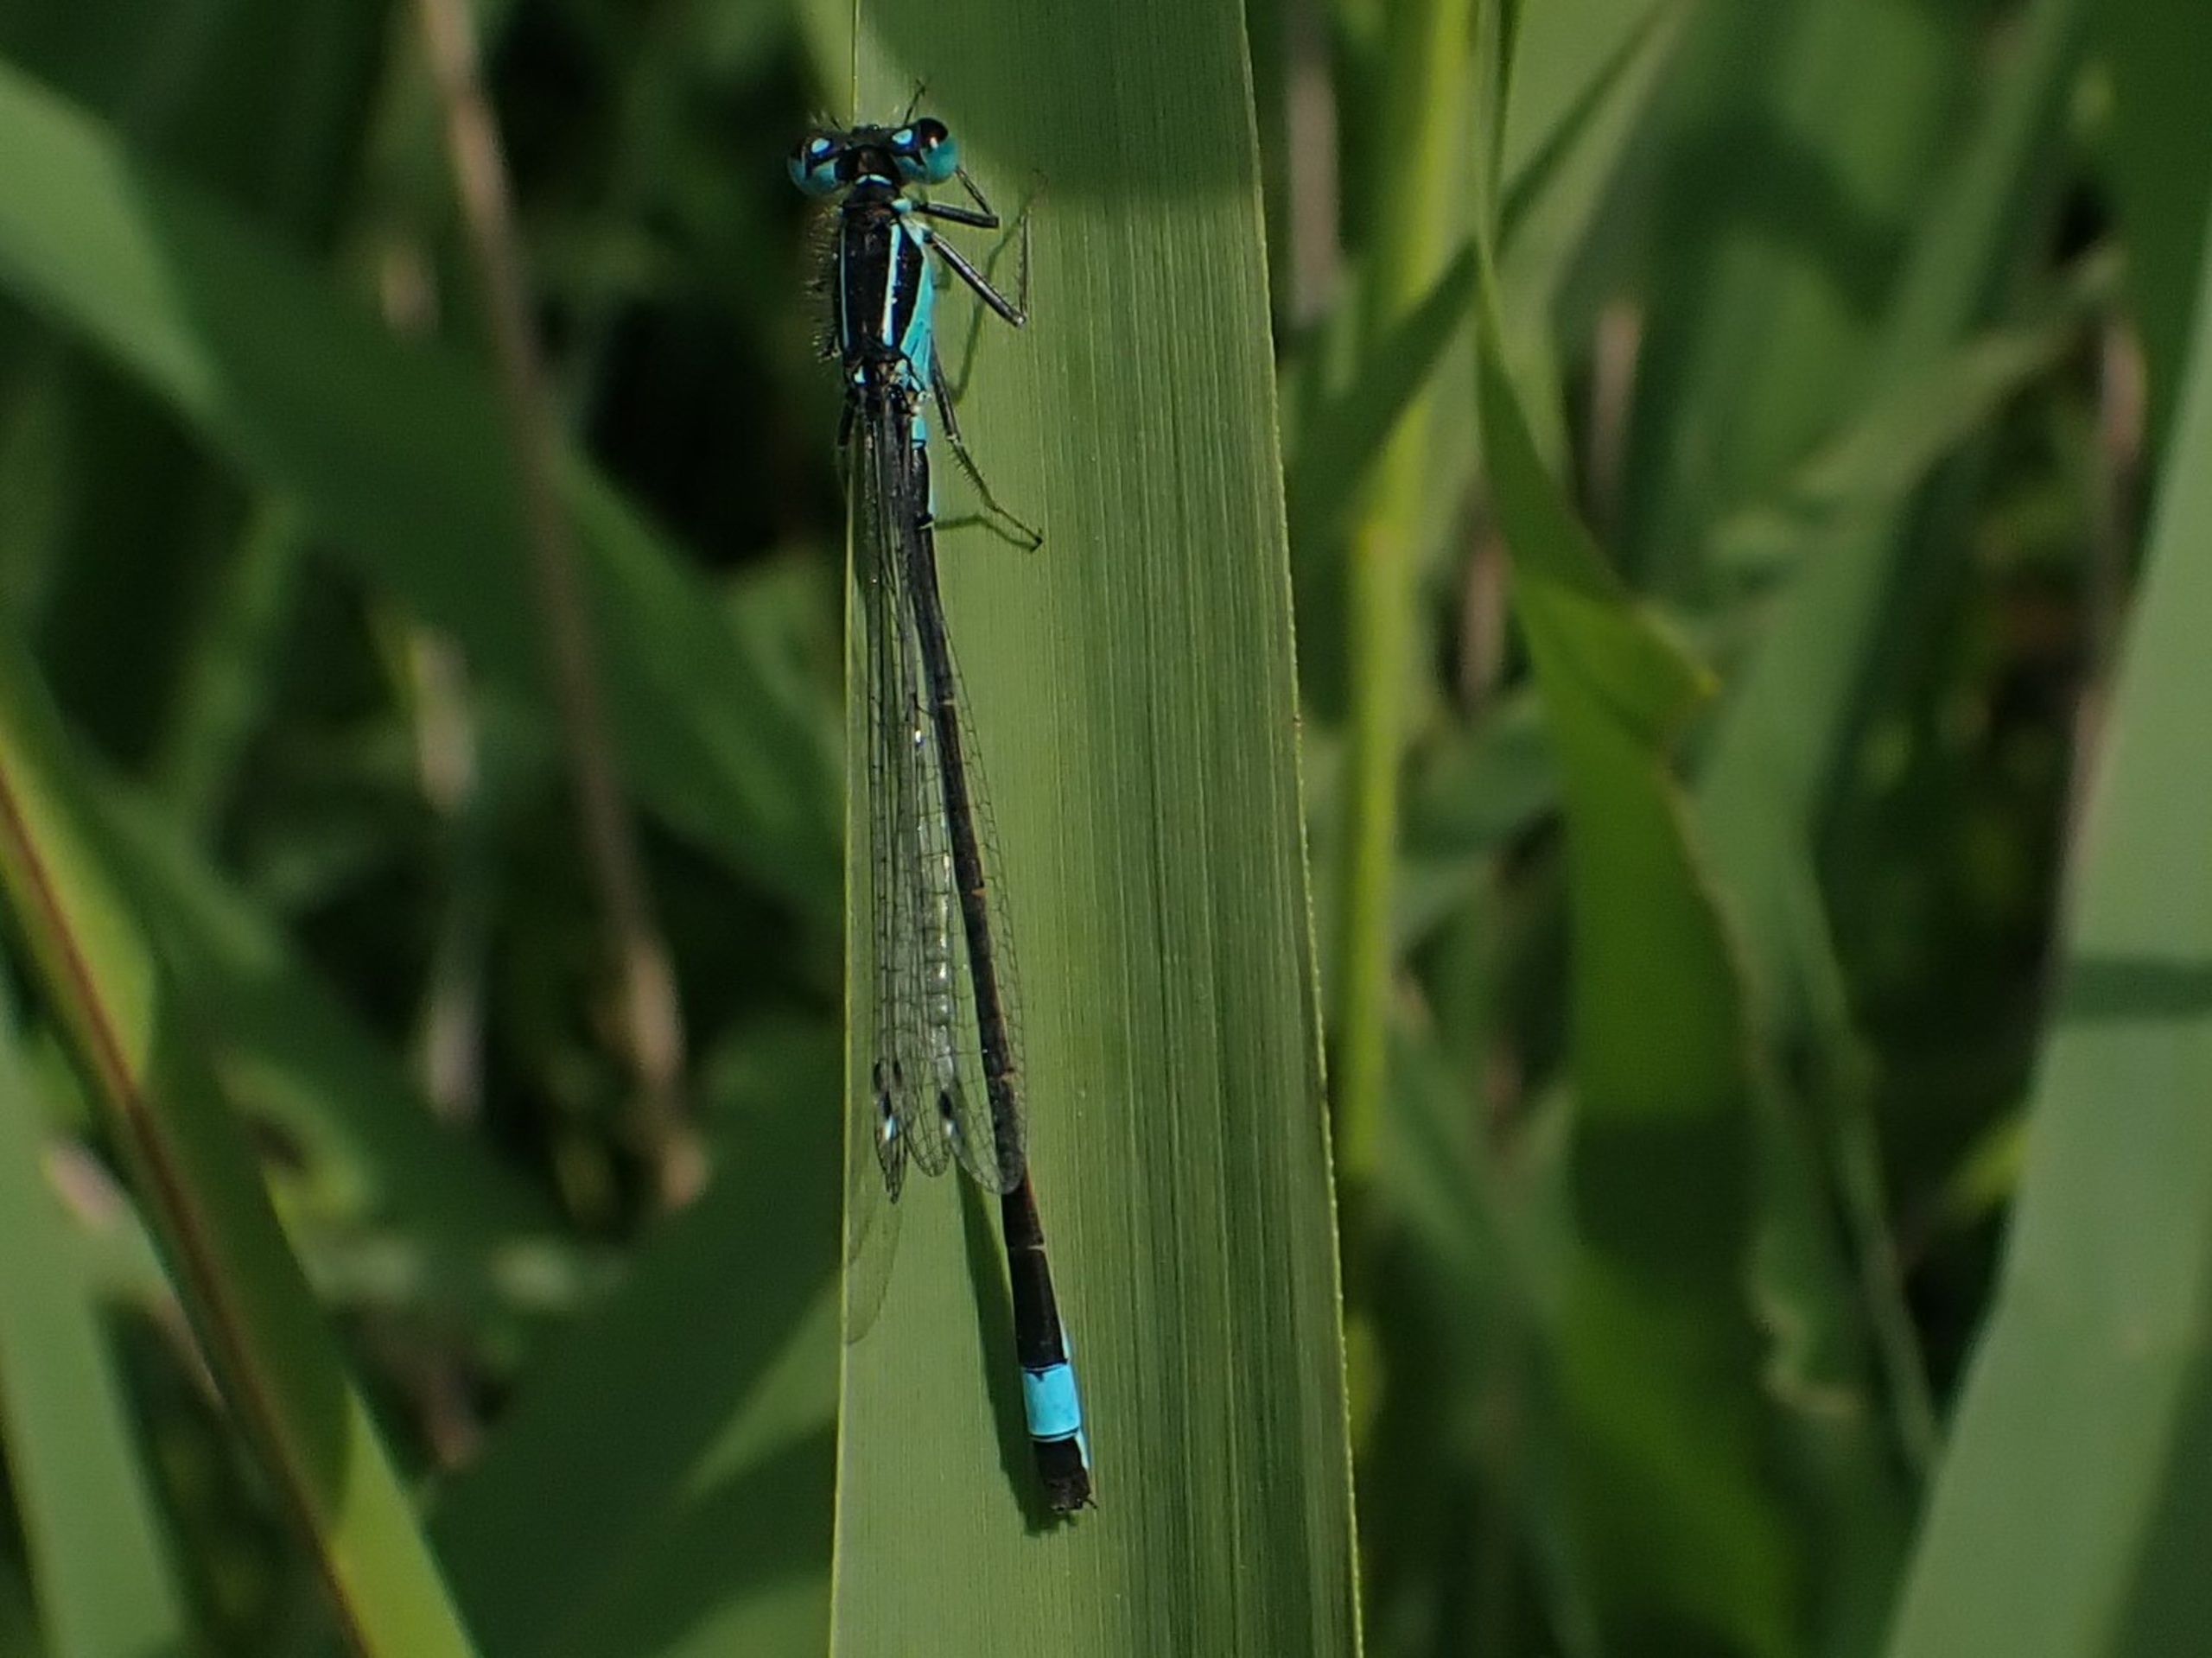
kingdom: Animalia
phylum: Arthropoda
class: Insecta
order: Odonata
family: Coenagrionidae
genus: Ischnura
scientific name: Ischnura elegans
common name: Stor farvevandnymfe
